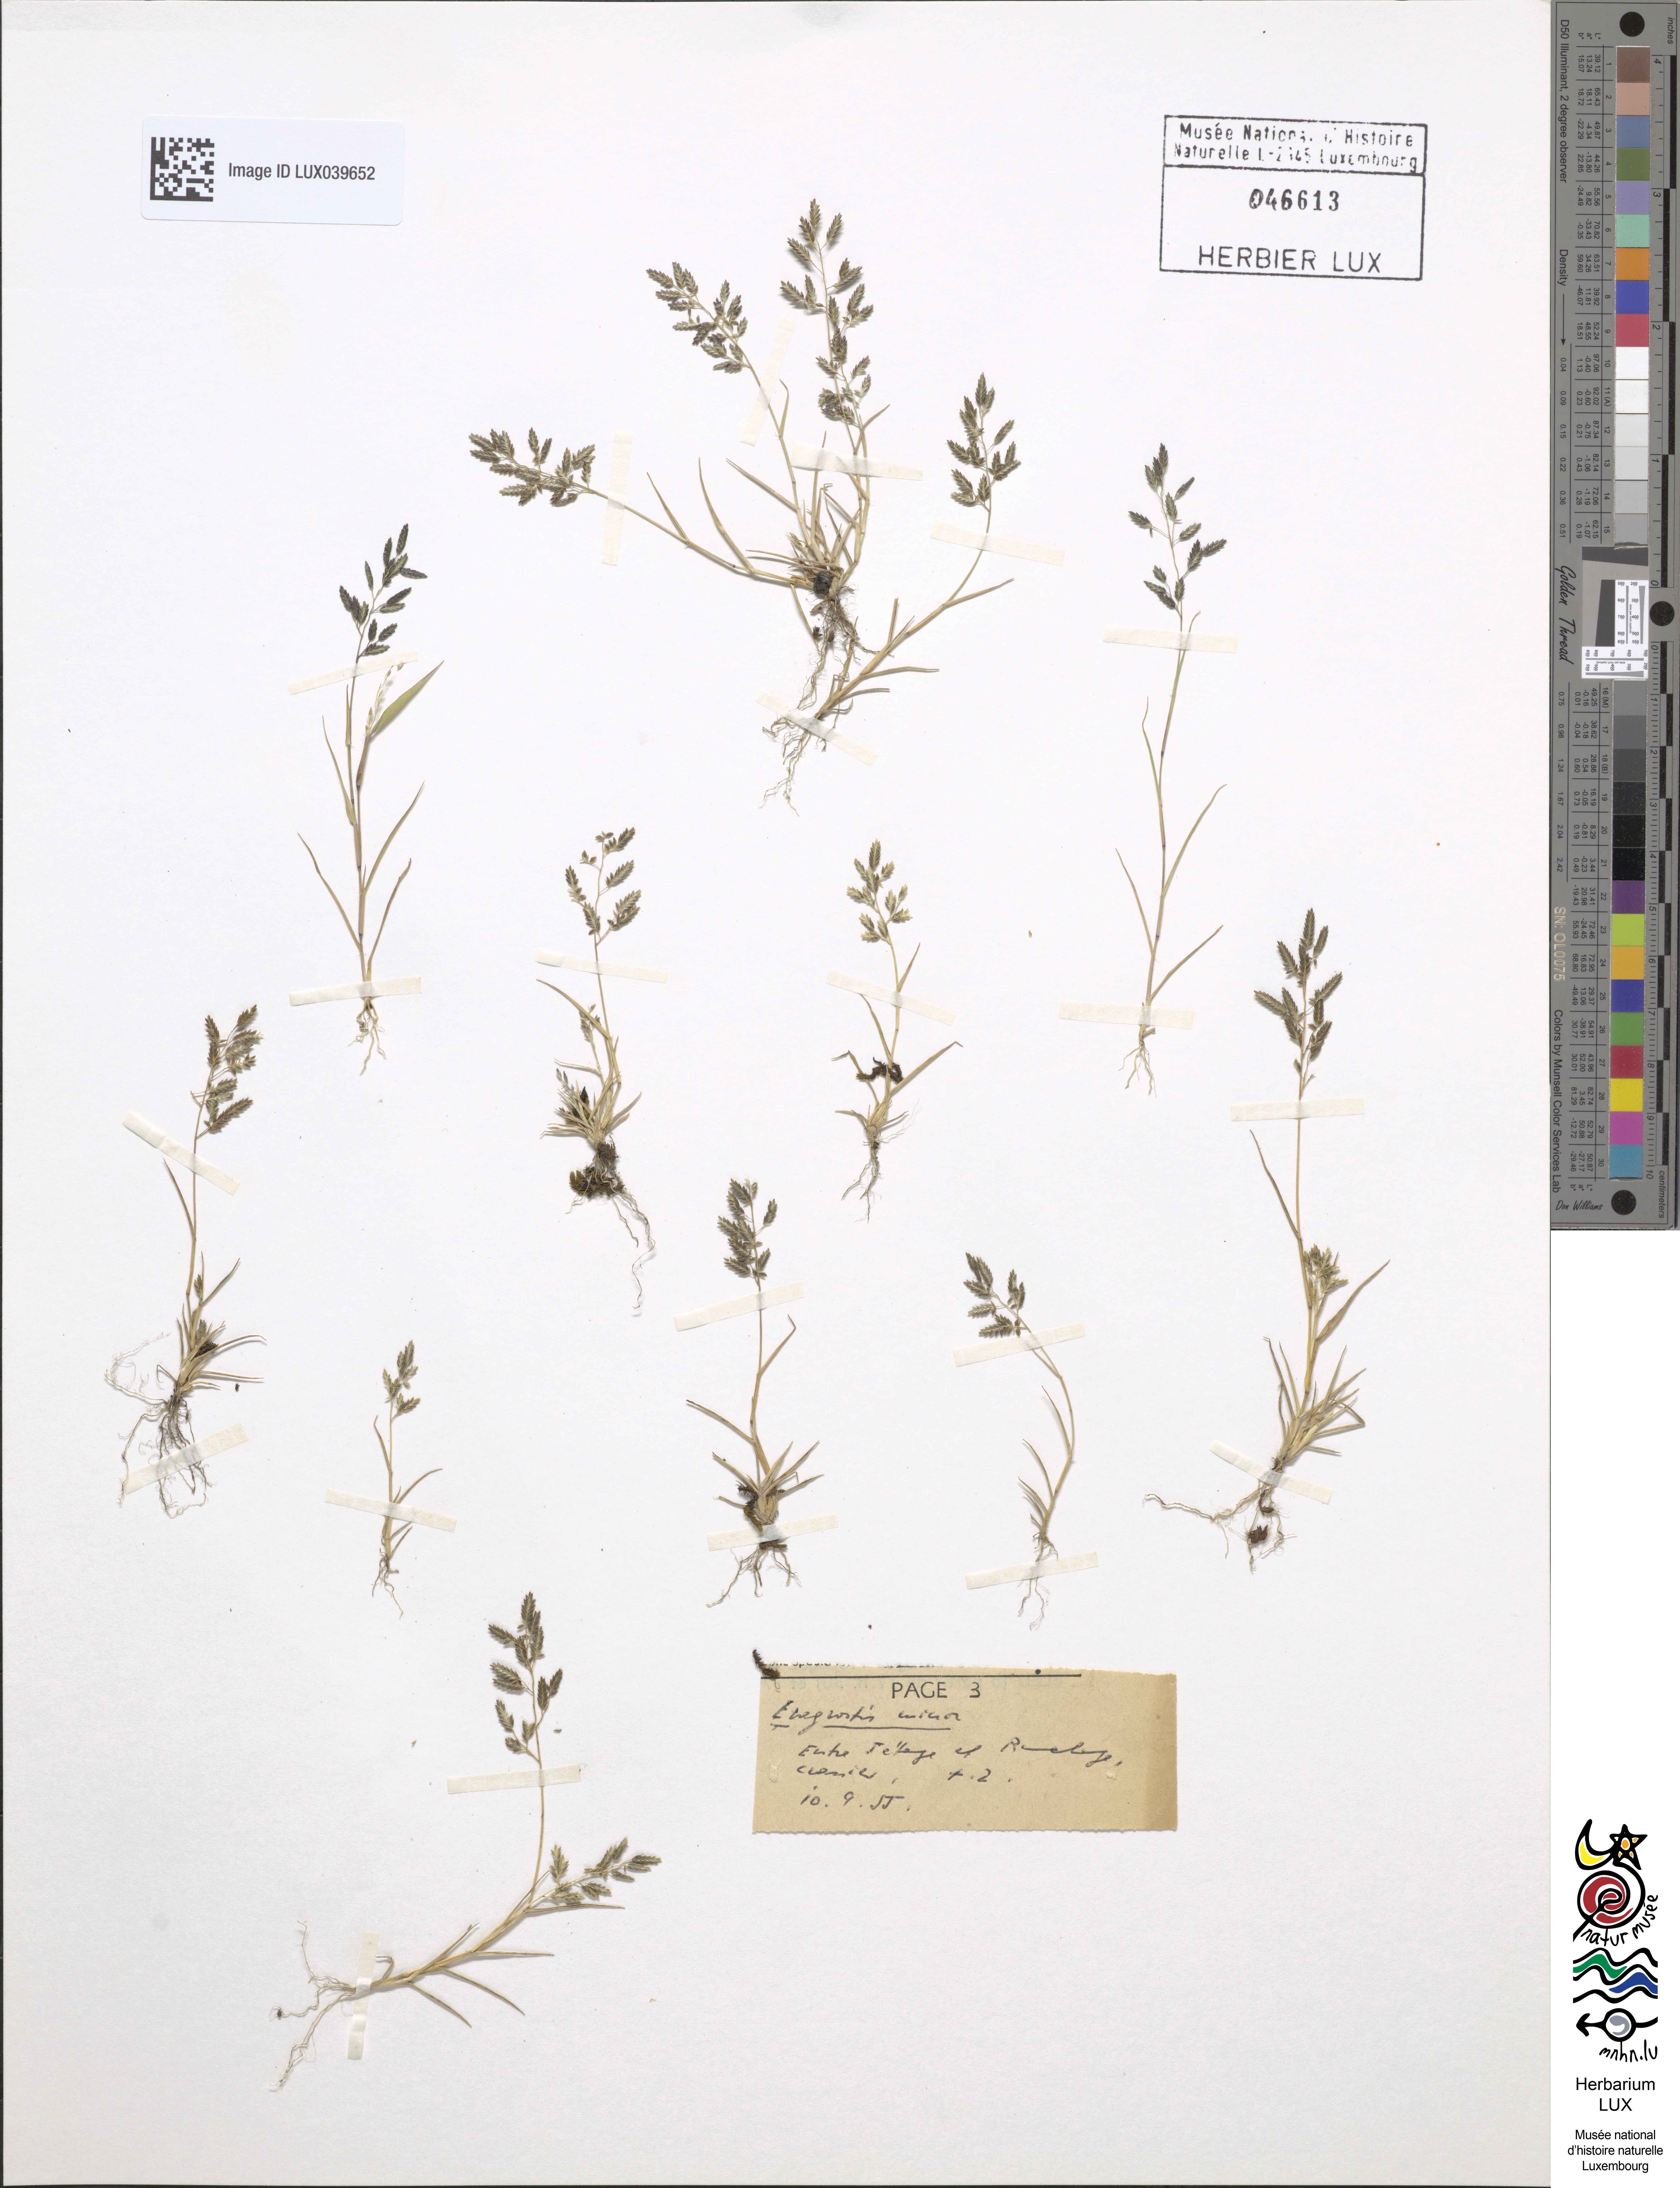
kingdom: Plantae
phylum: Tracheophyta
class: Liliopsida
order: Poales
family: Poaceae
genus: Eragrostis
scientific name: Eragrostis minor
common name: Small love-grass
